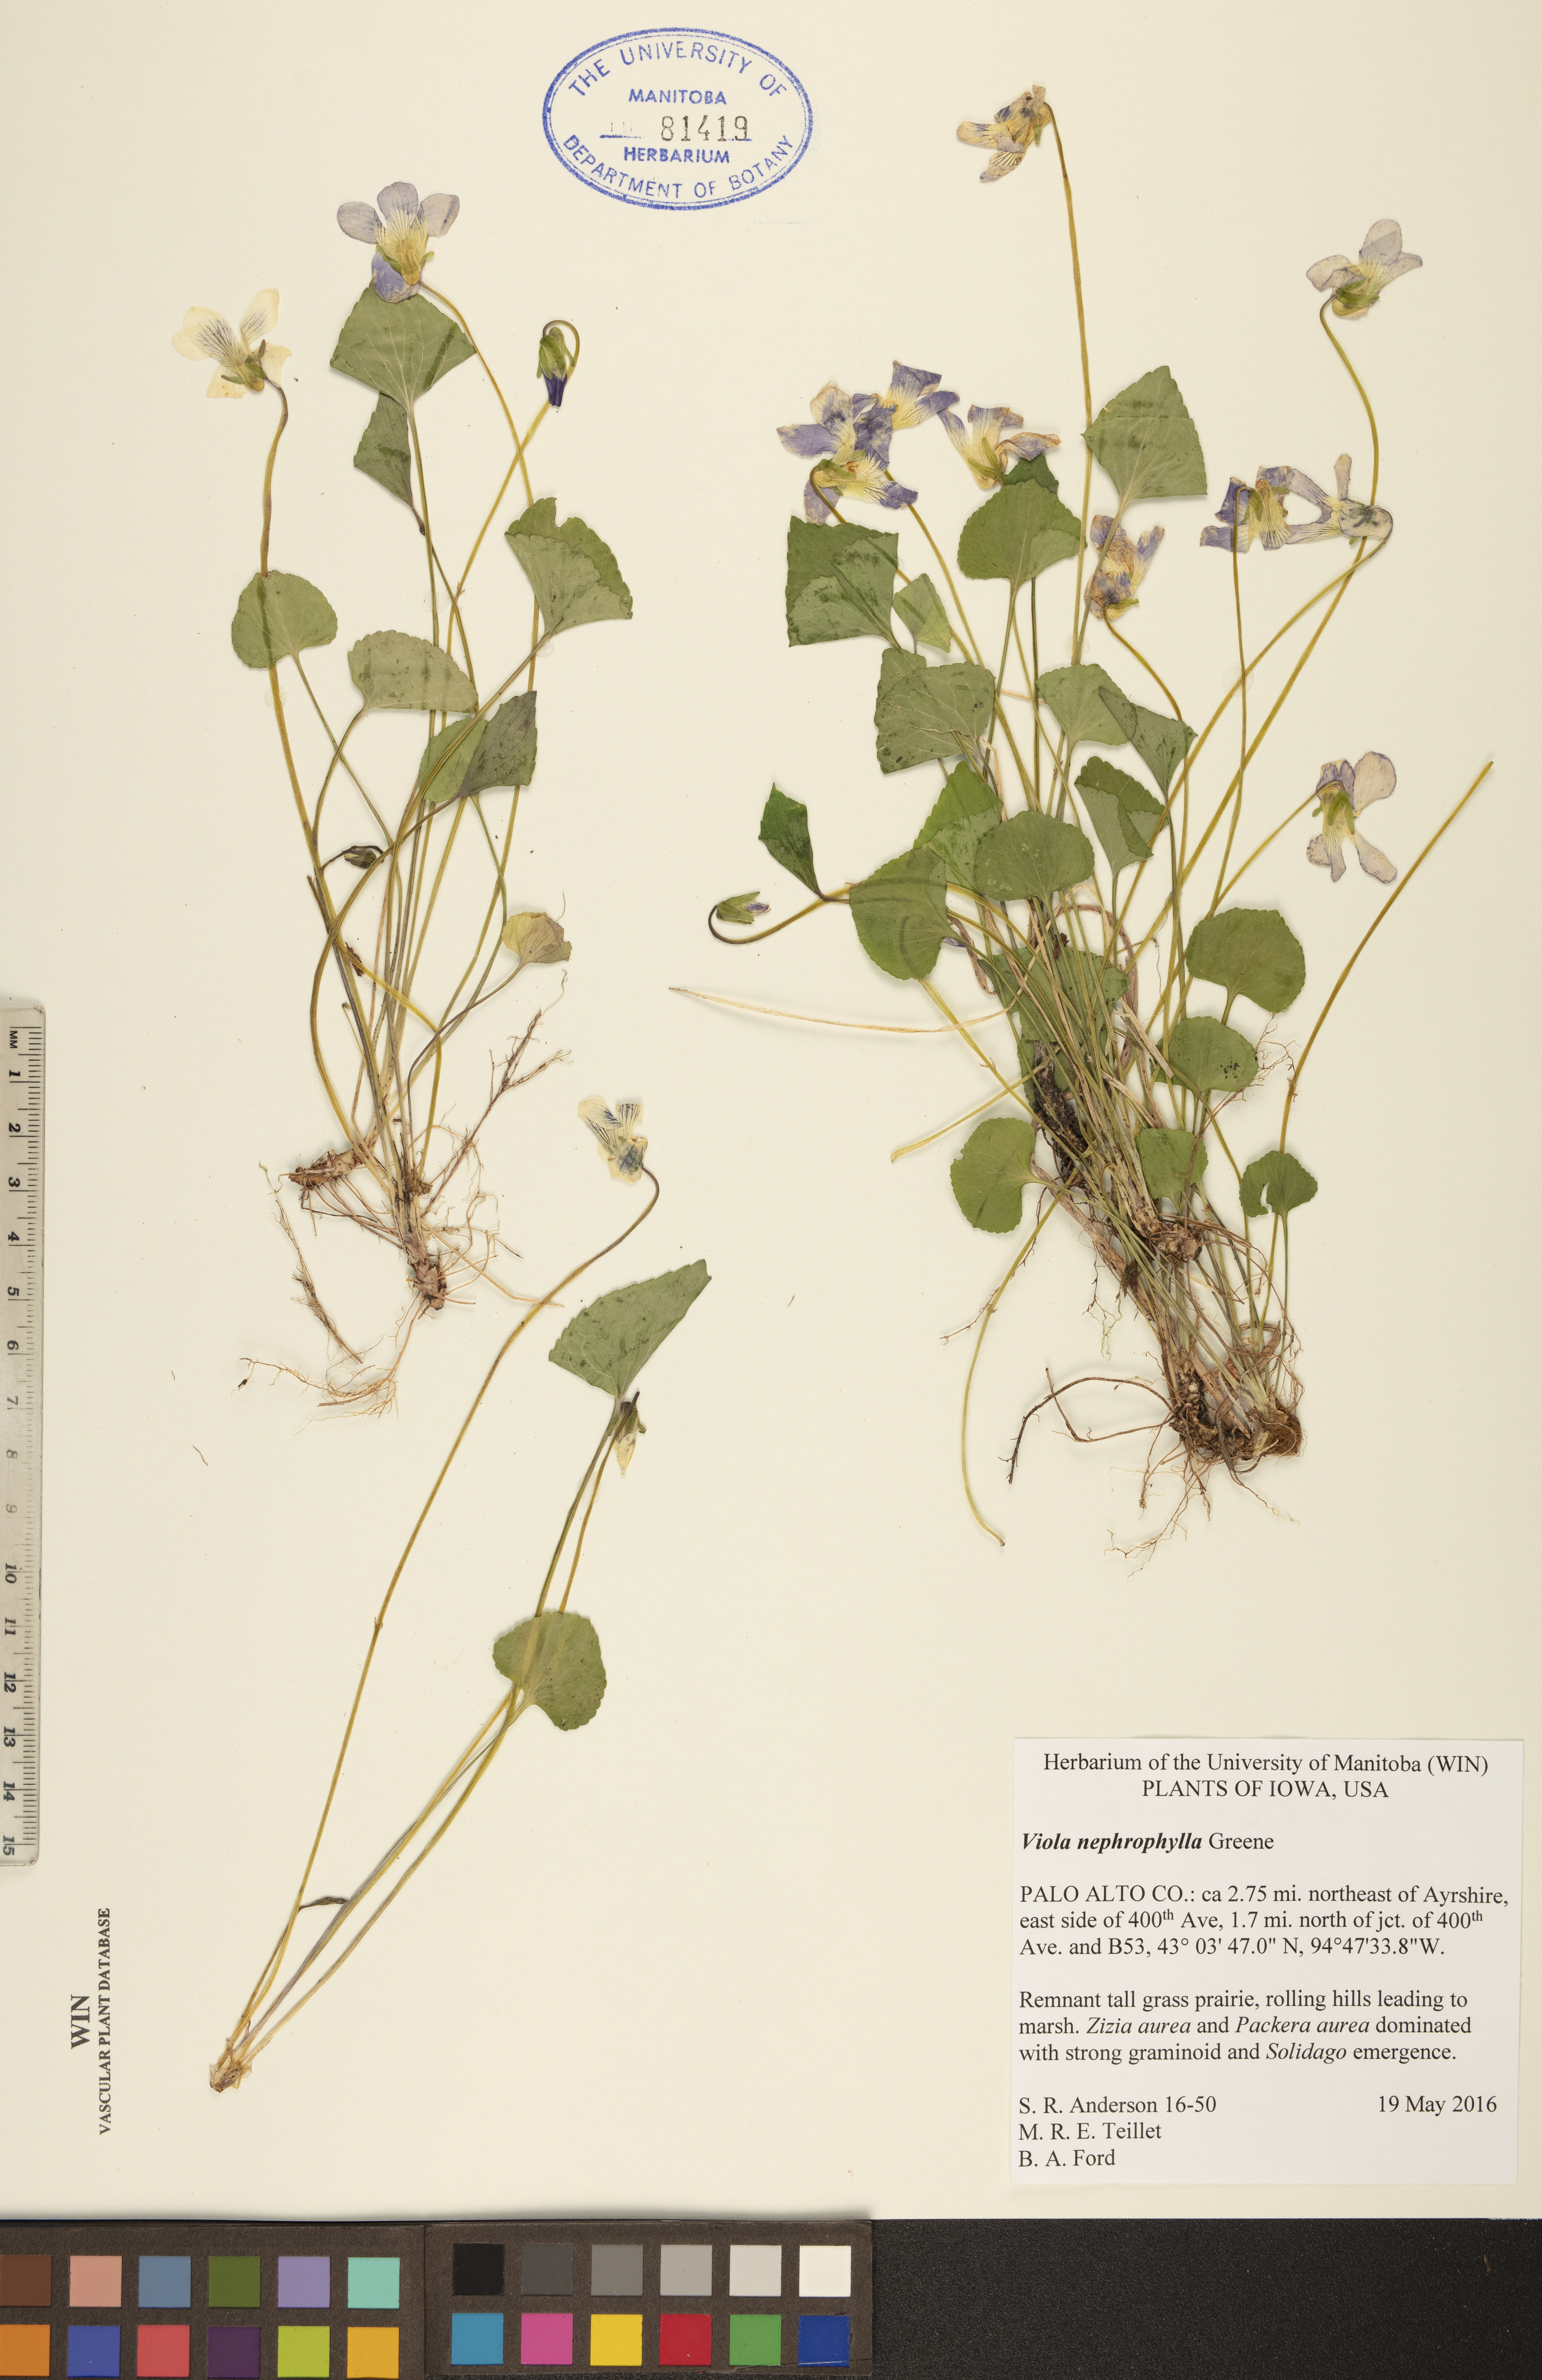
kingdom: Plantae
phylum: Tracheophyta
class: Magnoliopsida
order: Malpighiales
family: Violaceae
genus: Viola
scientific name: Viola nephrophylla
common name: Blue meadow violet
